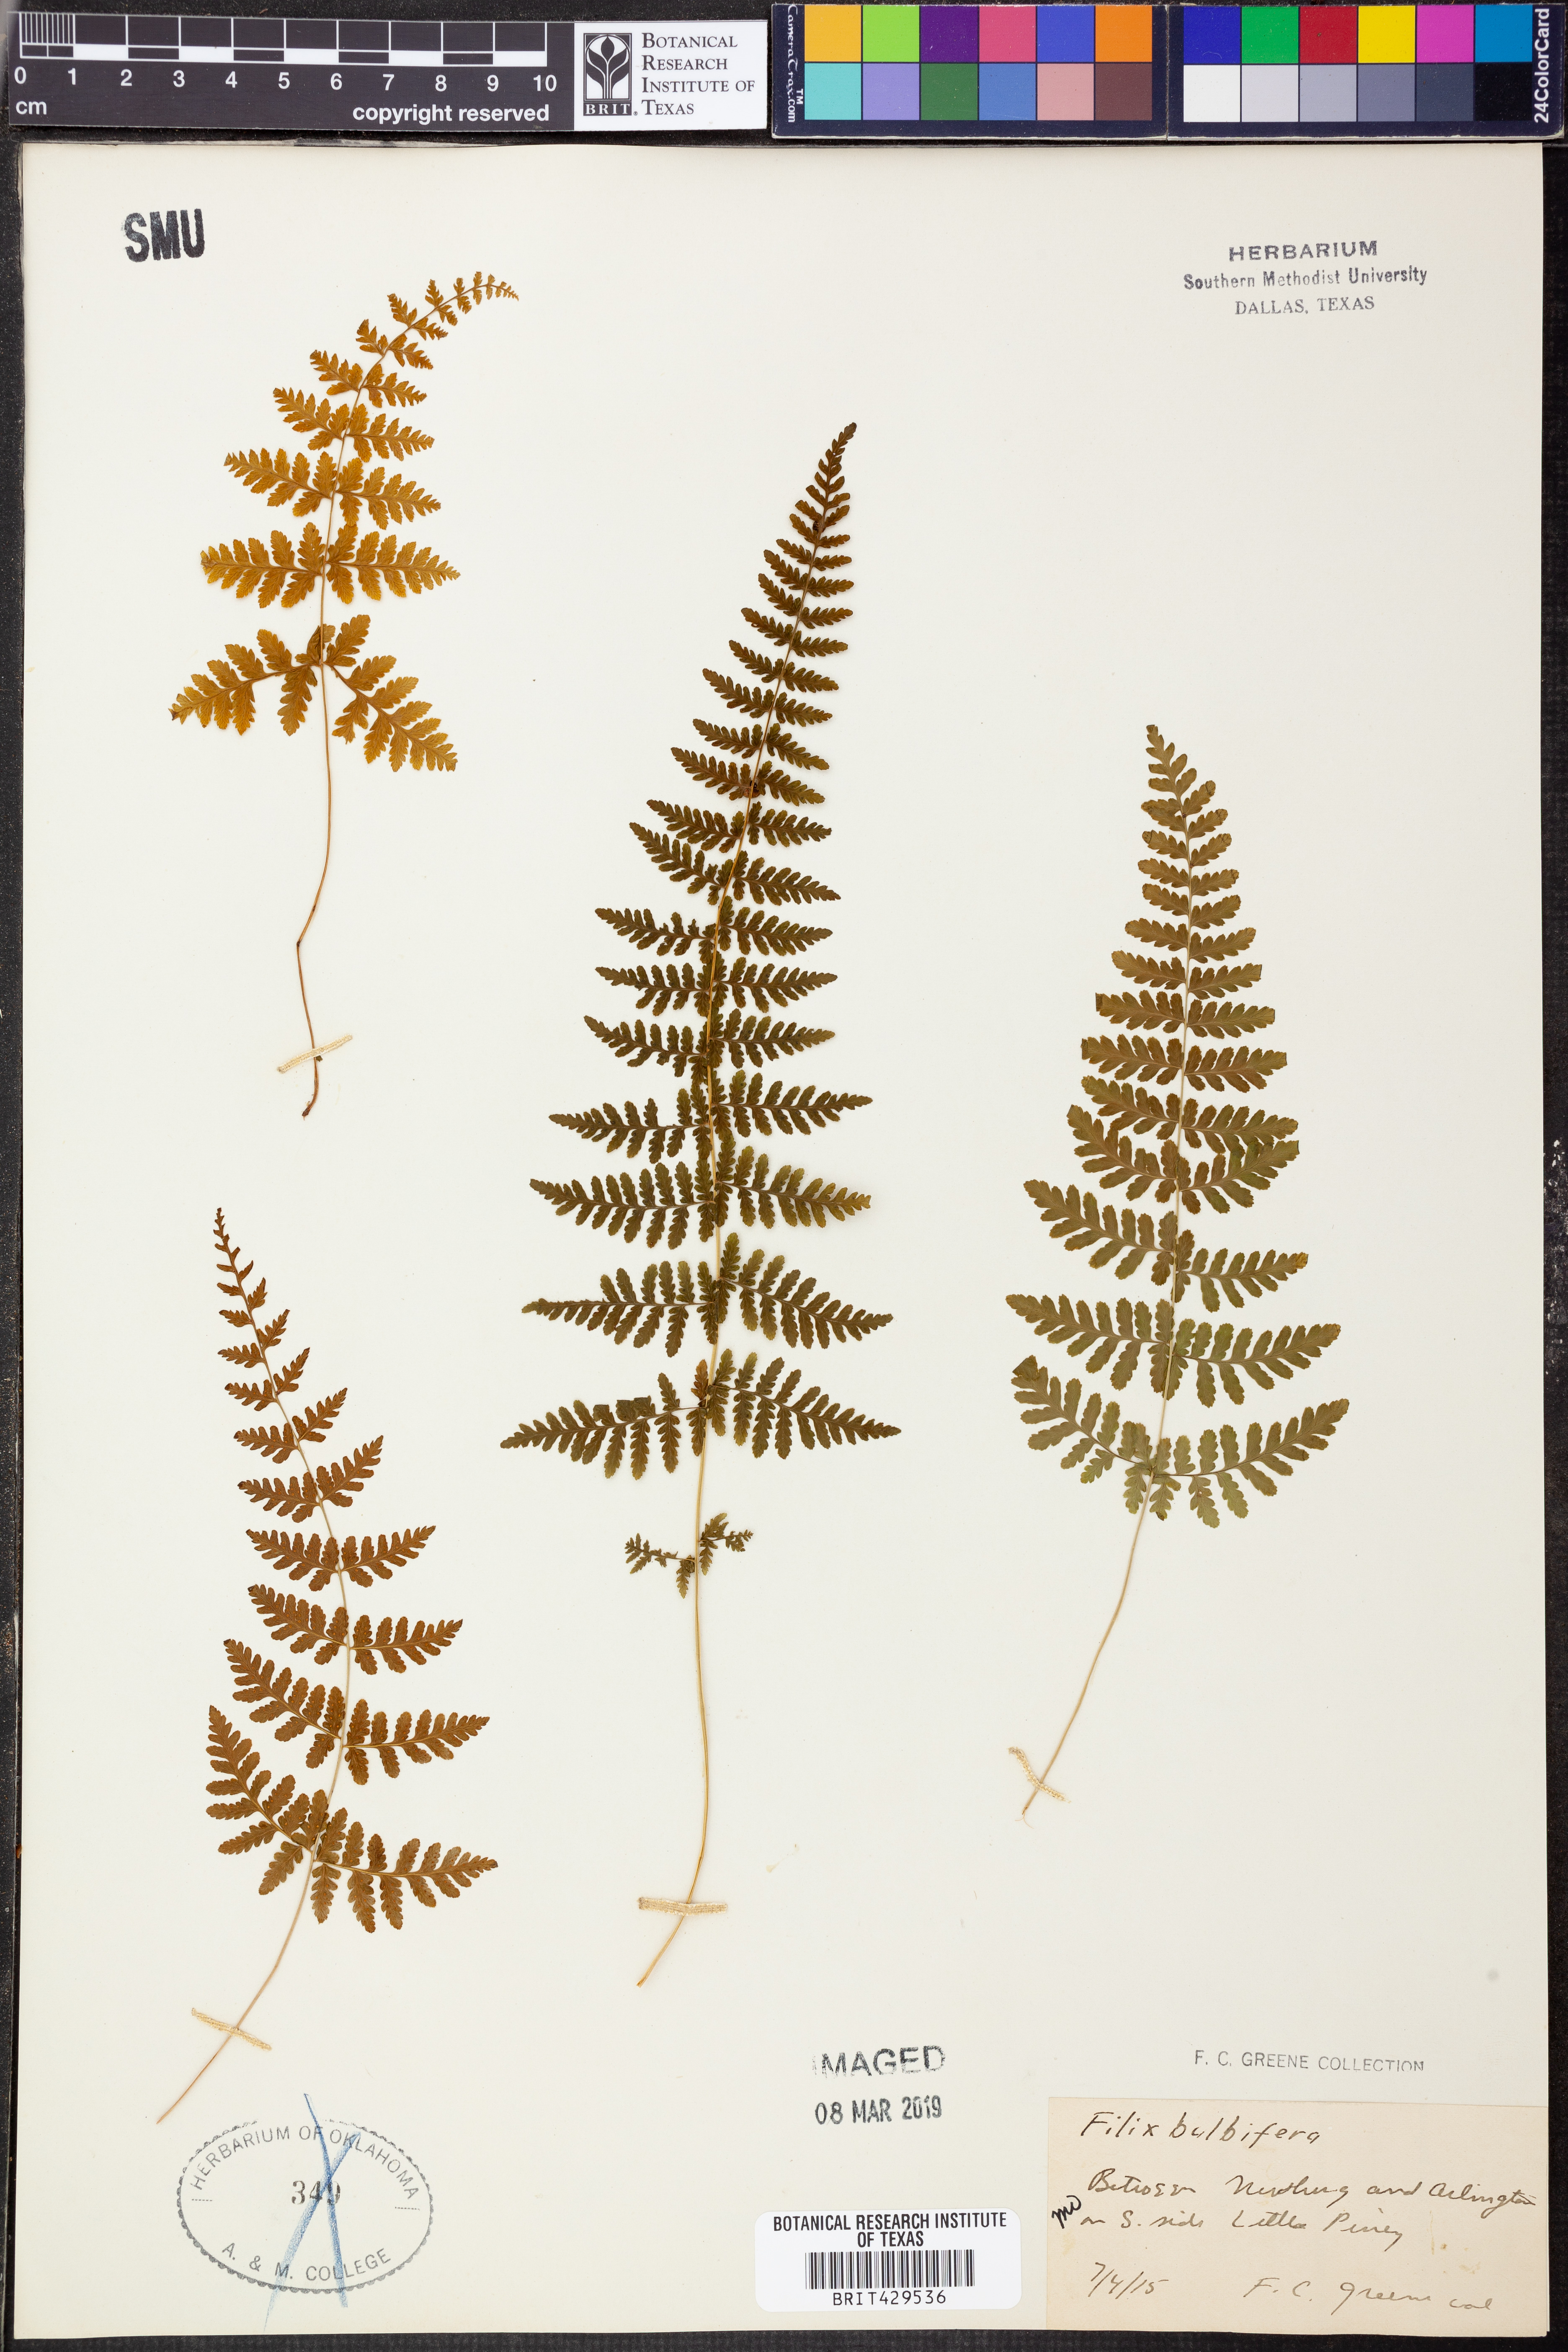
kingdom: Plantae
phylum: Tracheophyta
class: Polypodiopsida
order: Polypodiales
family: Cystopteridaceae
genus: Cystopteris
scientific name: Cystopteris bulbifera
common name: Bulblet bladder fern
